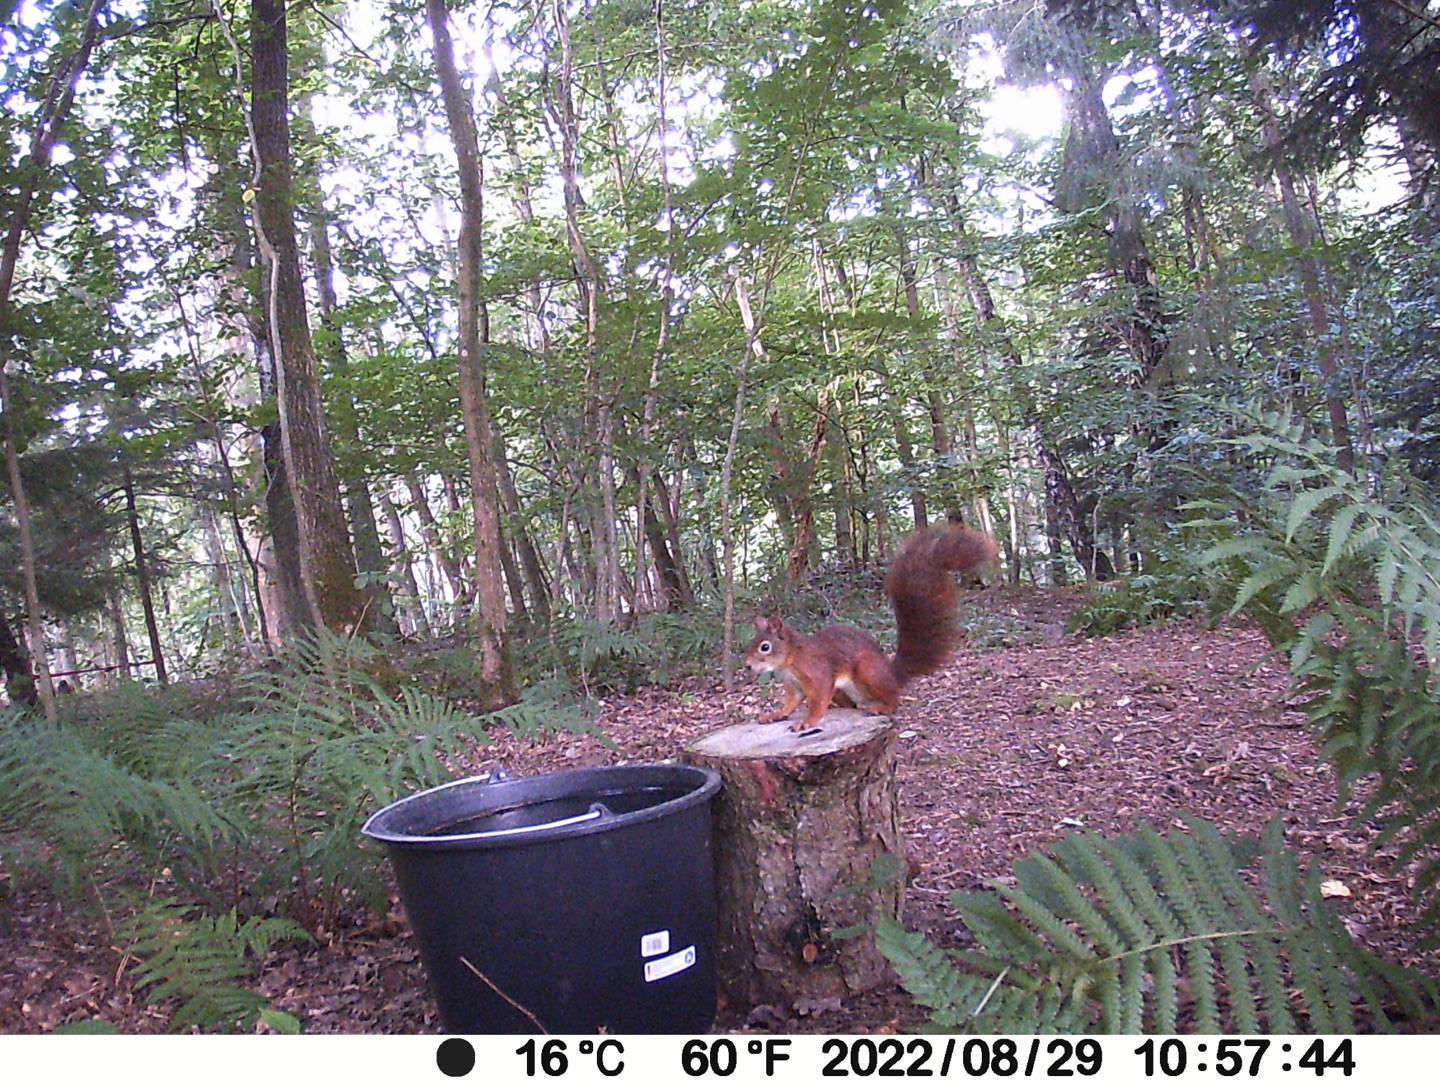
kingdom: Animalia
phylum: Chordata
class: Mammalia
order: Rodentia
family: Sciuridae
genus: Sciurus
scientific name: Sciurus vulgaris
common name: Egern
